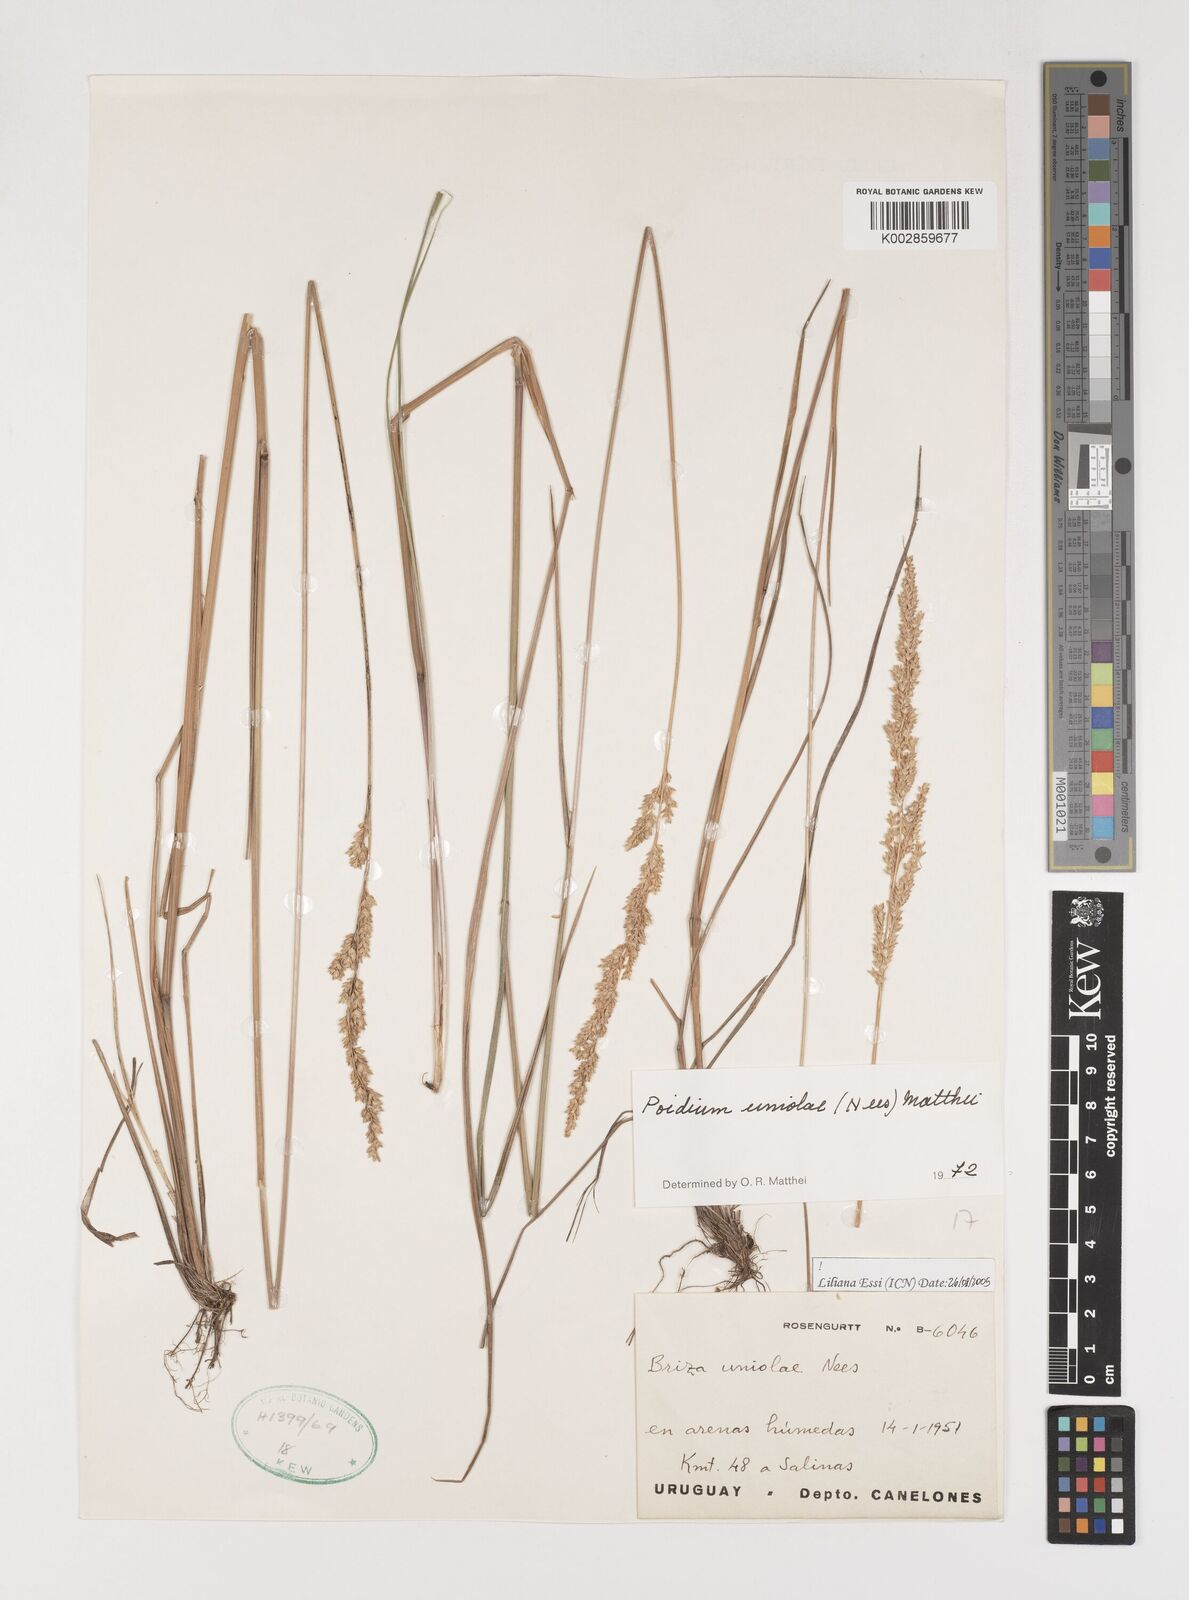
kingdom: Plantae
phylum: Tracheophyta
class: Liliopsida
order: Poales
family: Poaceae
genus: Poidium
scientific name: Poidium uniolae
